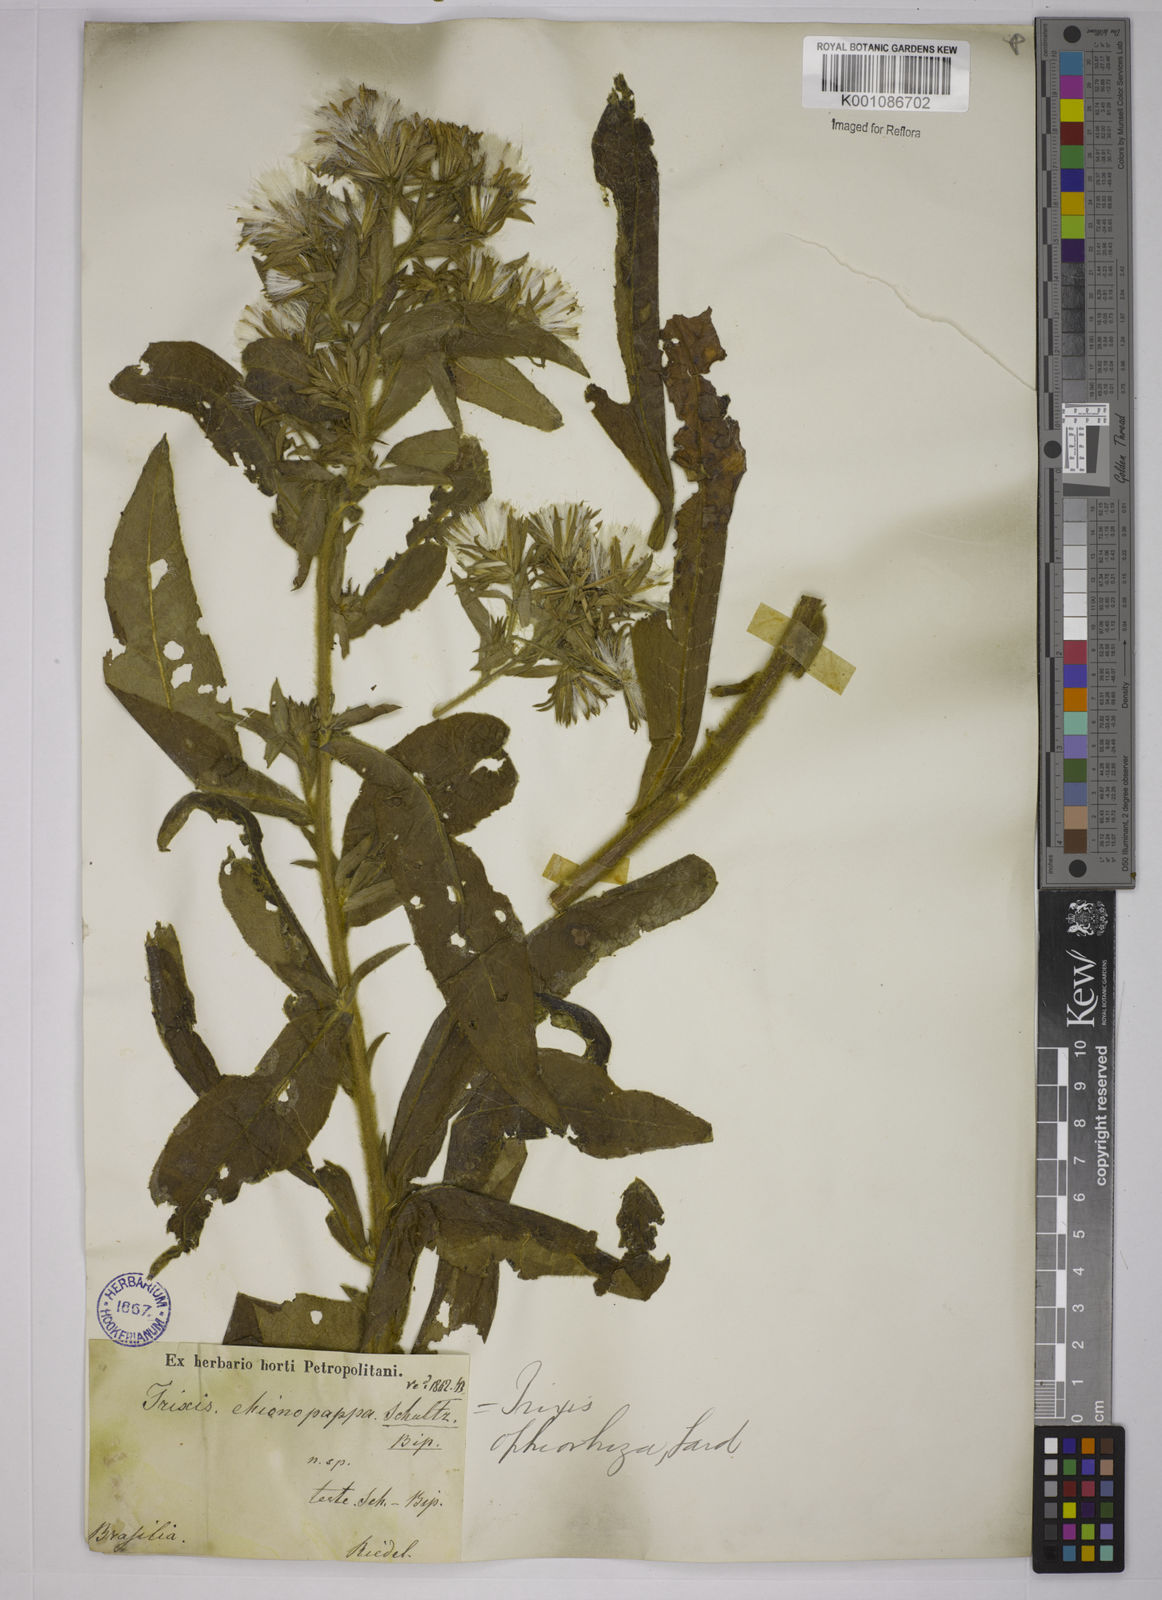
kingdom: Plantae
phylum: Tracheophyta
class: Magnoliopsida
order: Asterales
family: Asteraceae
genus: Trixis
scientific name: Trixis ophiorhiza
